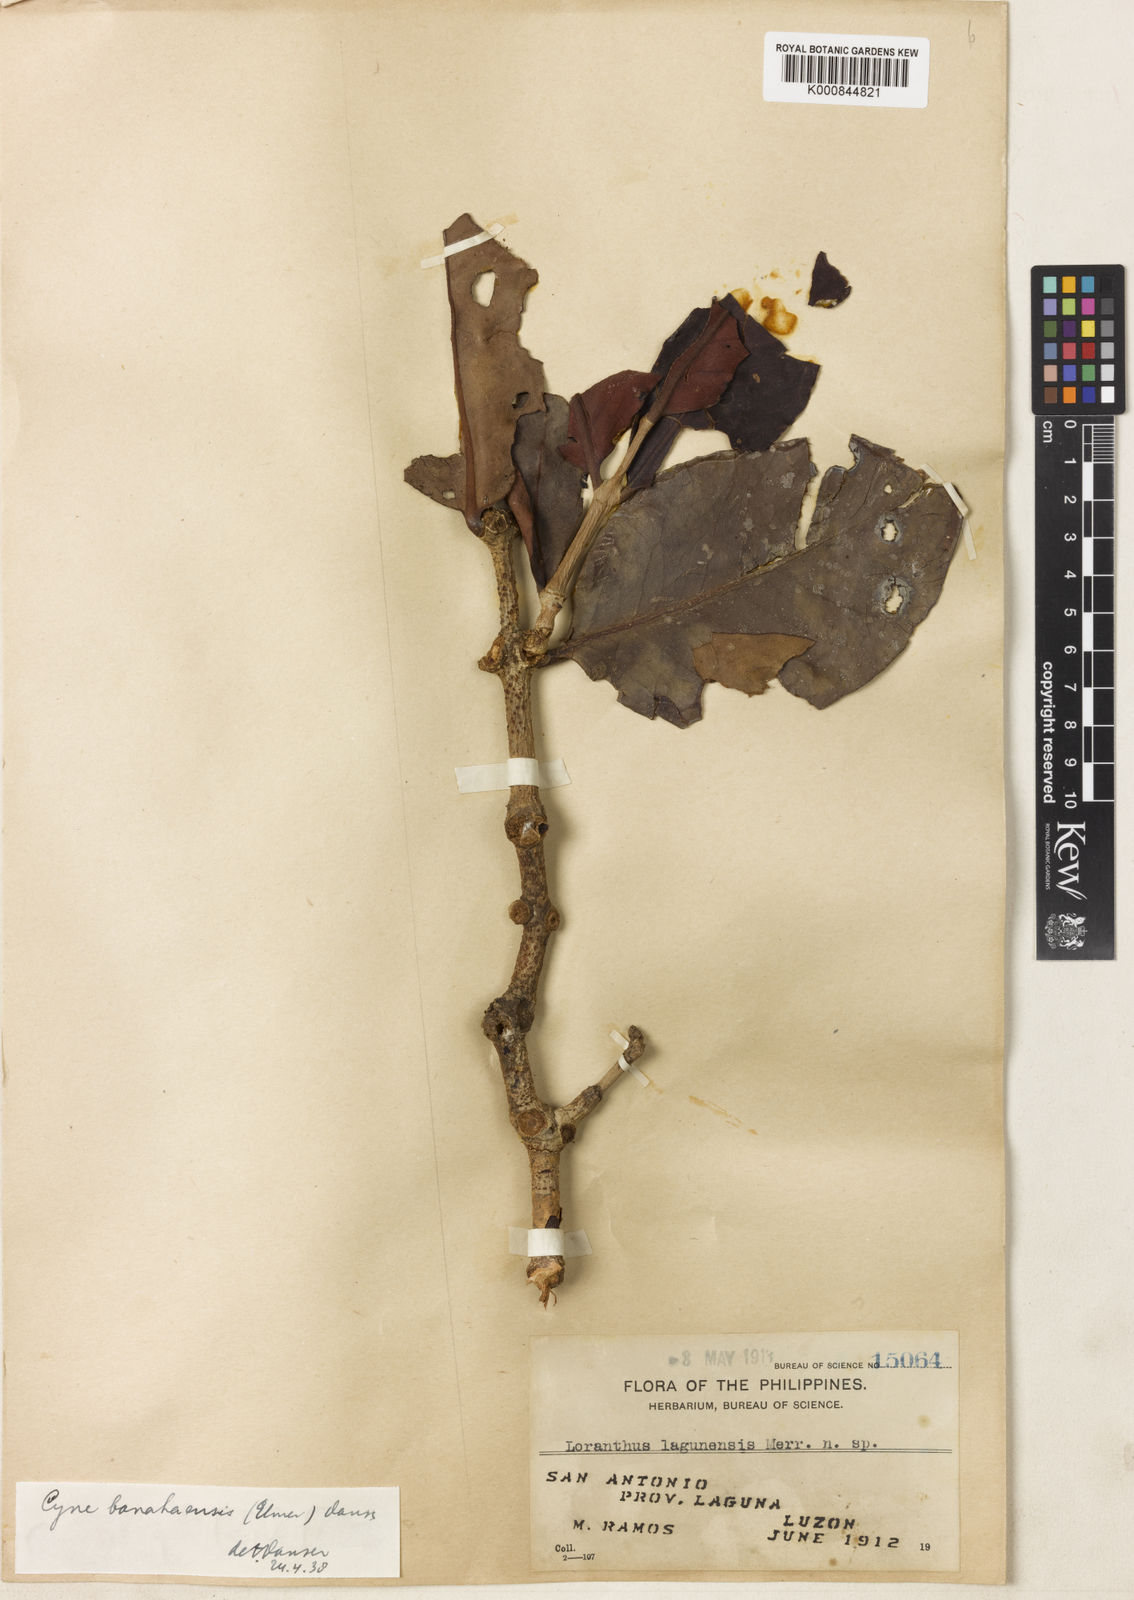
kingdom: Plantae
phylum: Tracheophyta
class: Magnoliopsida
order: Santalales
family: Loranthaceae
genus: Cyne
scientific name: Cyne banahaensis
